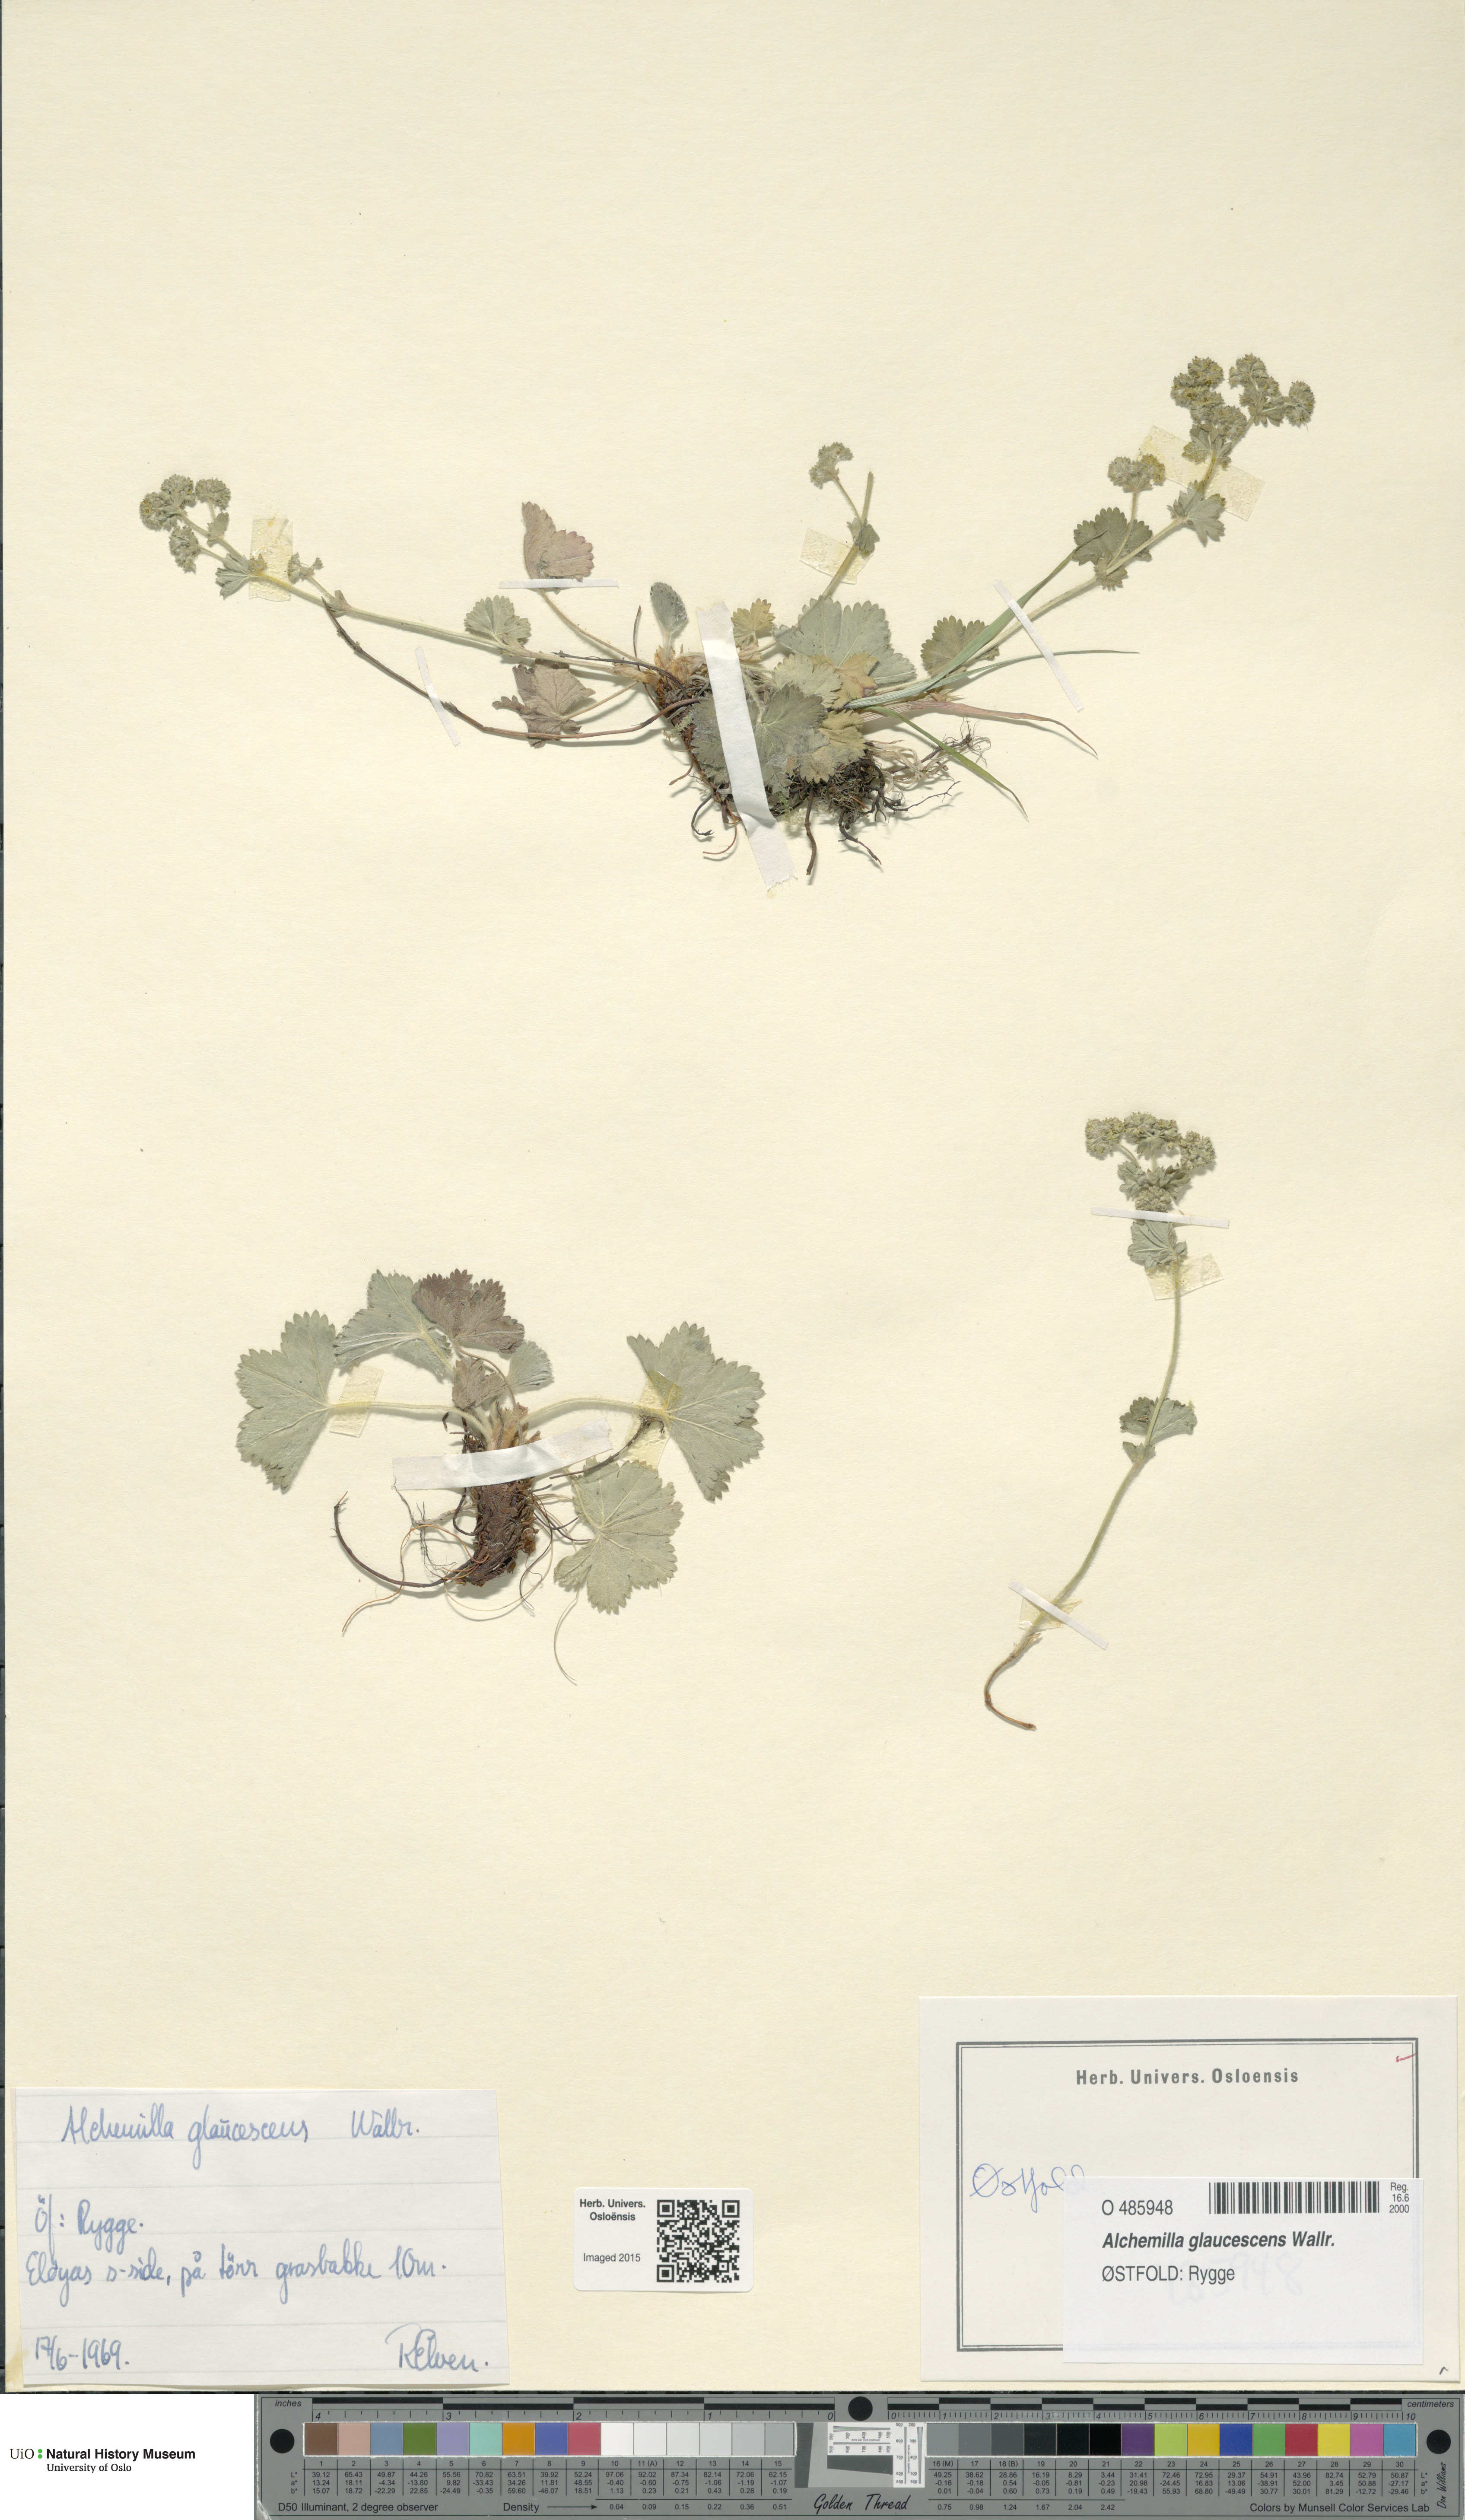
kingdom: Plantae
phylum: Tracheophyta
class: Magnoliopsida
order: Rosales
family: Rosaceae
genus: Alchemilla
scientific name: Alchemilla glaucescens
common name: Silky lady's mantle
